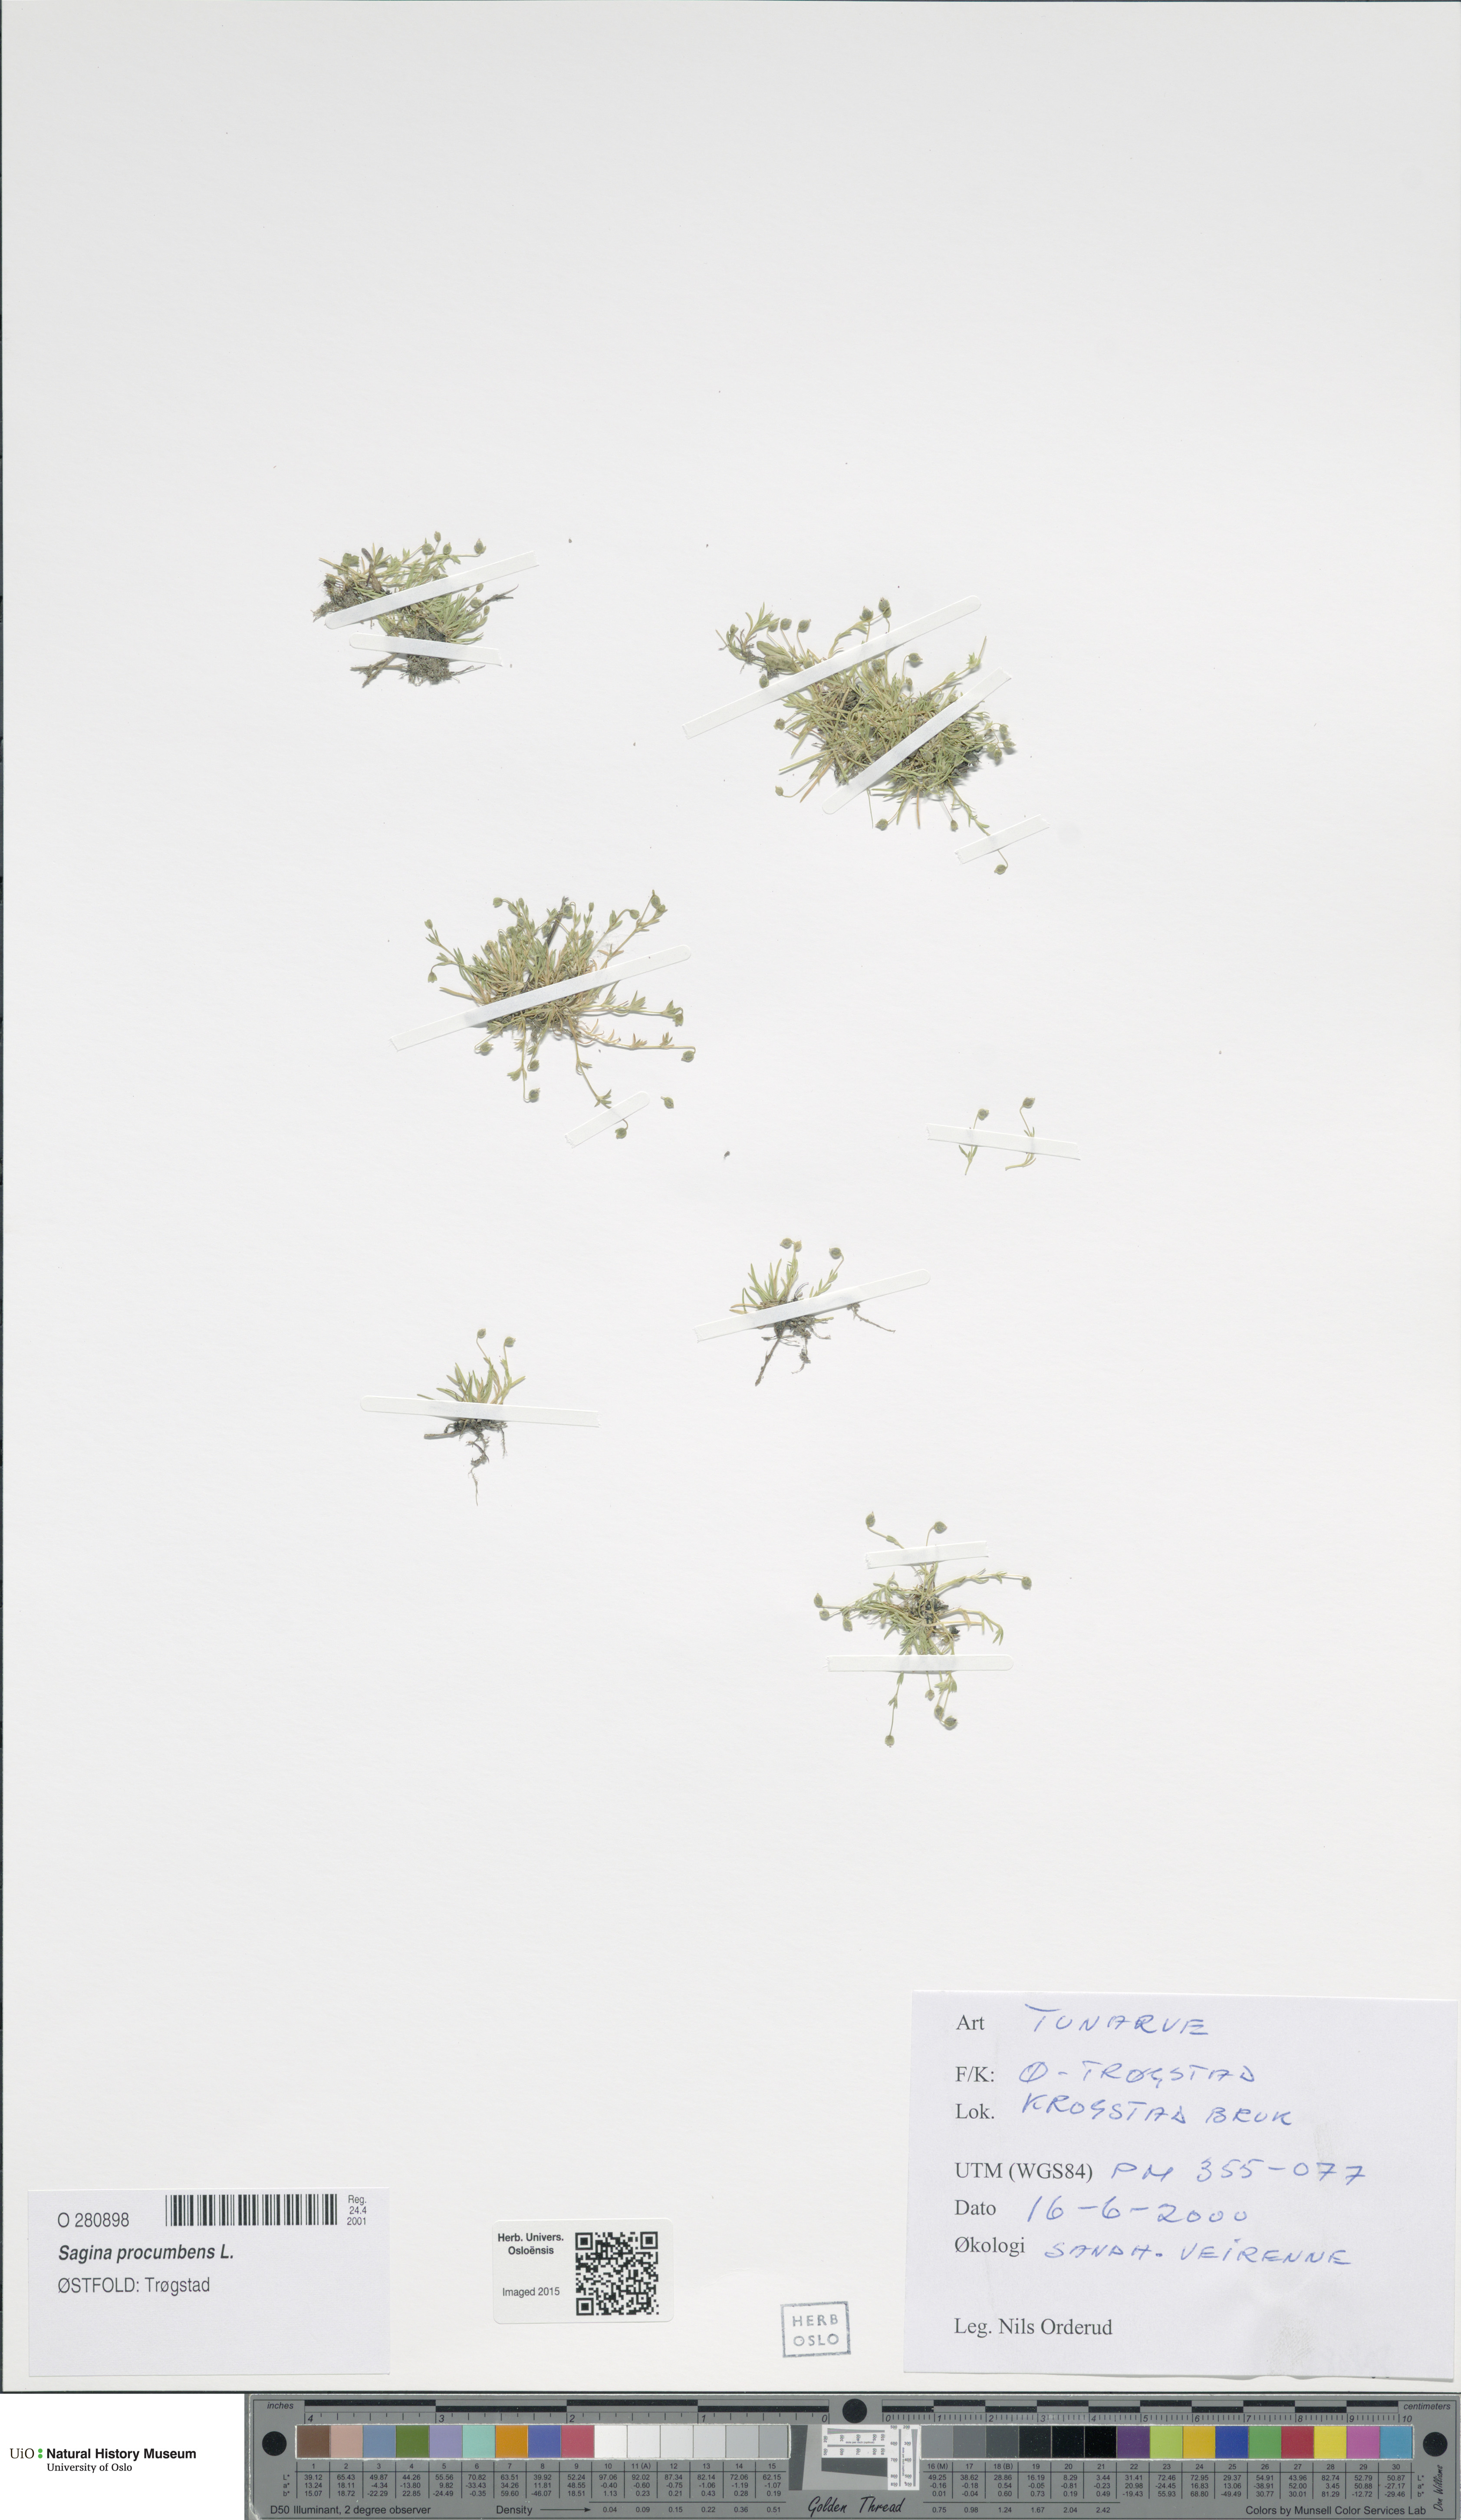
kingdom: Plantae
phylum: Tracheophyta
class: Magnoliopsida
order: Caryophyllales
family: Caryophyllaceae
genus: Sagina
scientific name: Sagina procumbens
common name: Procumbent pearlwort
